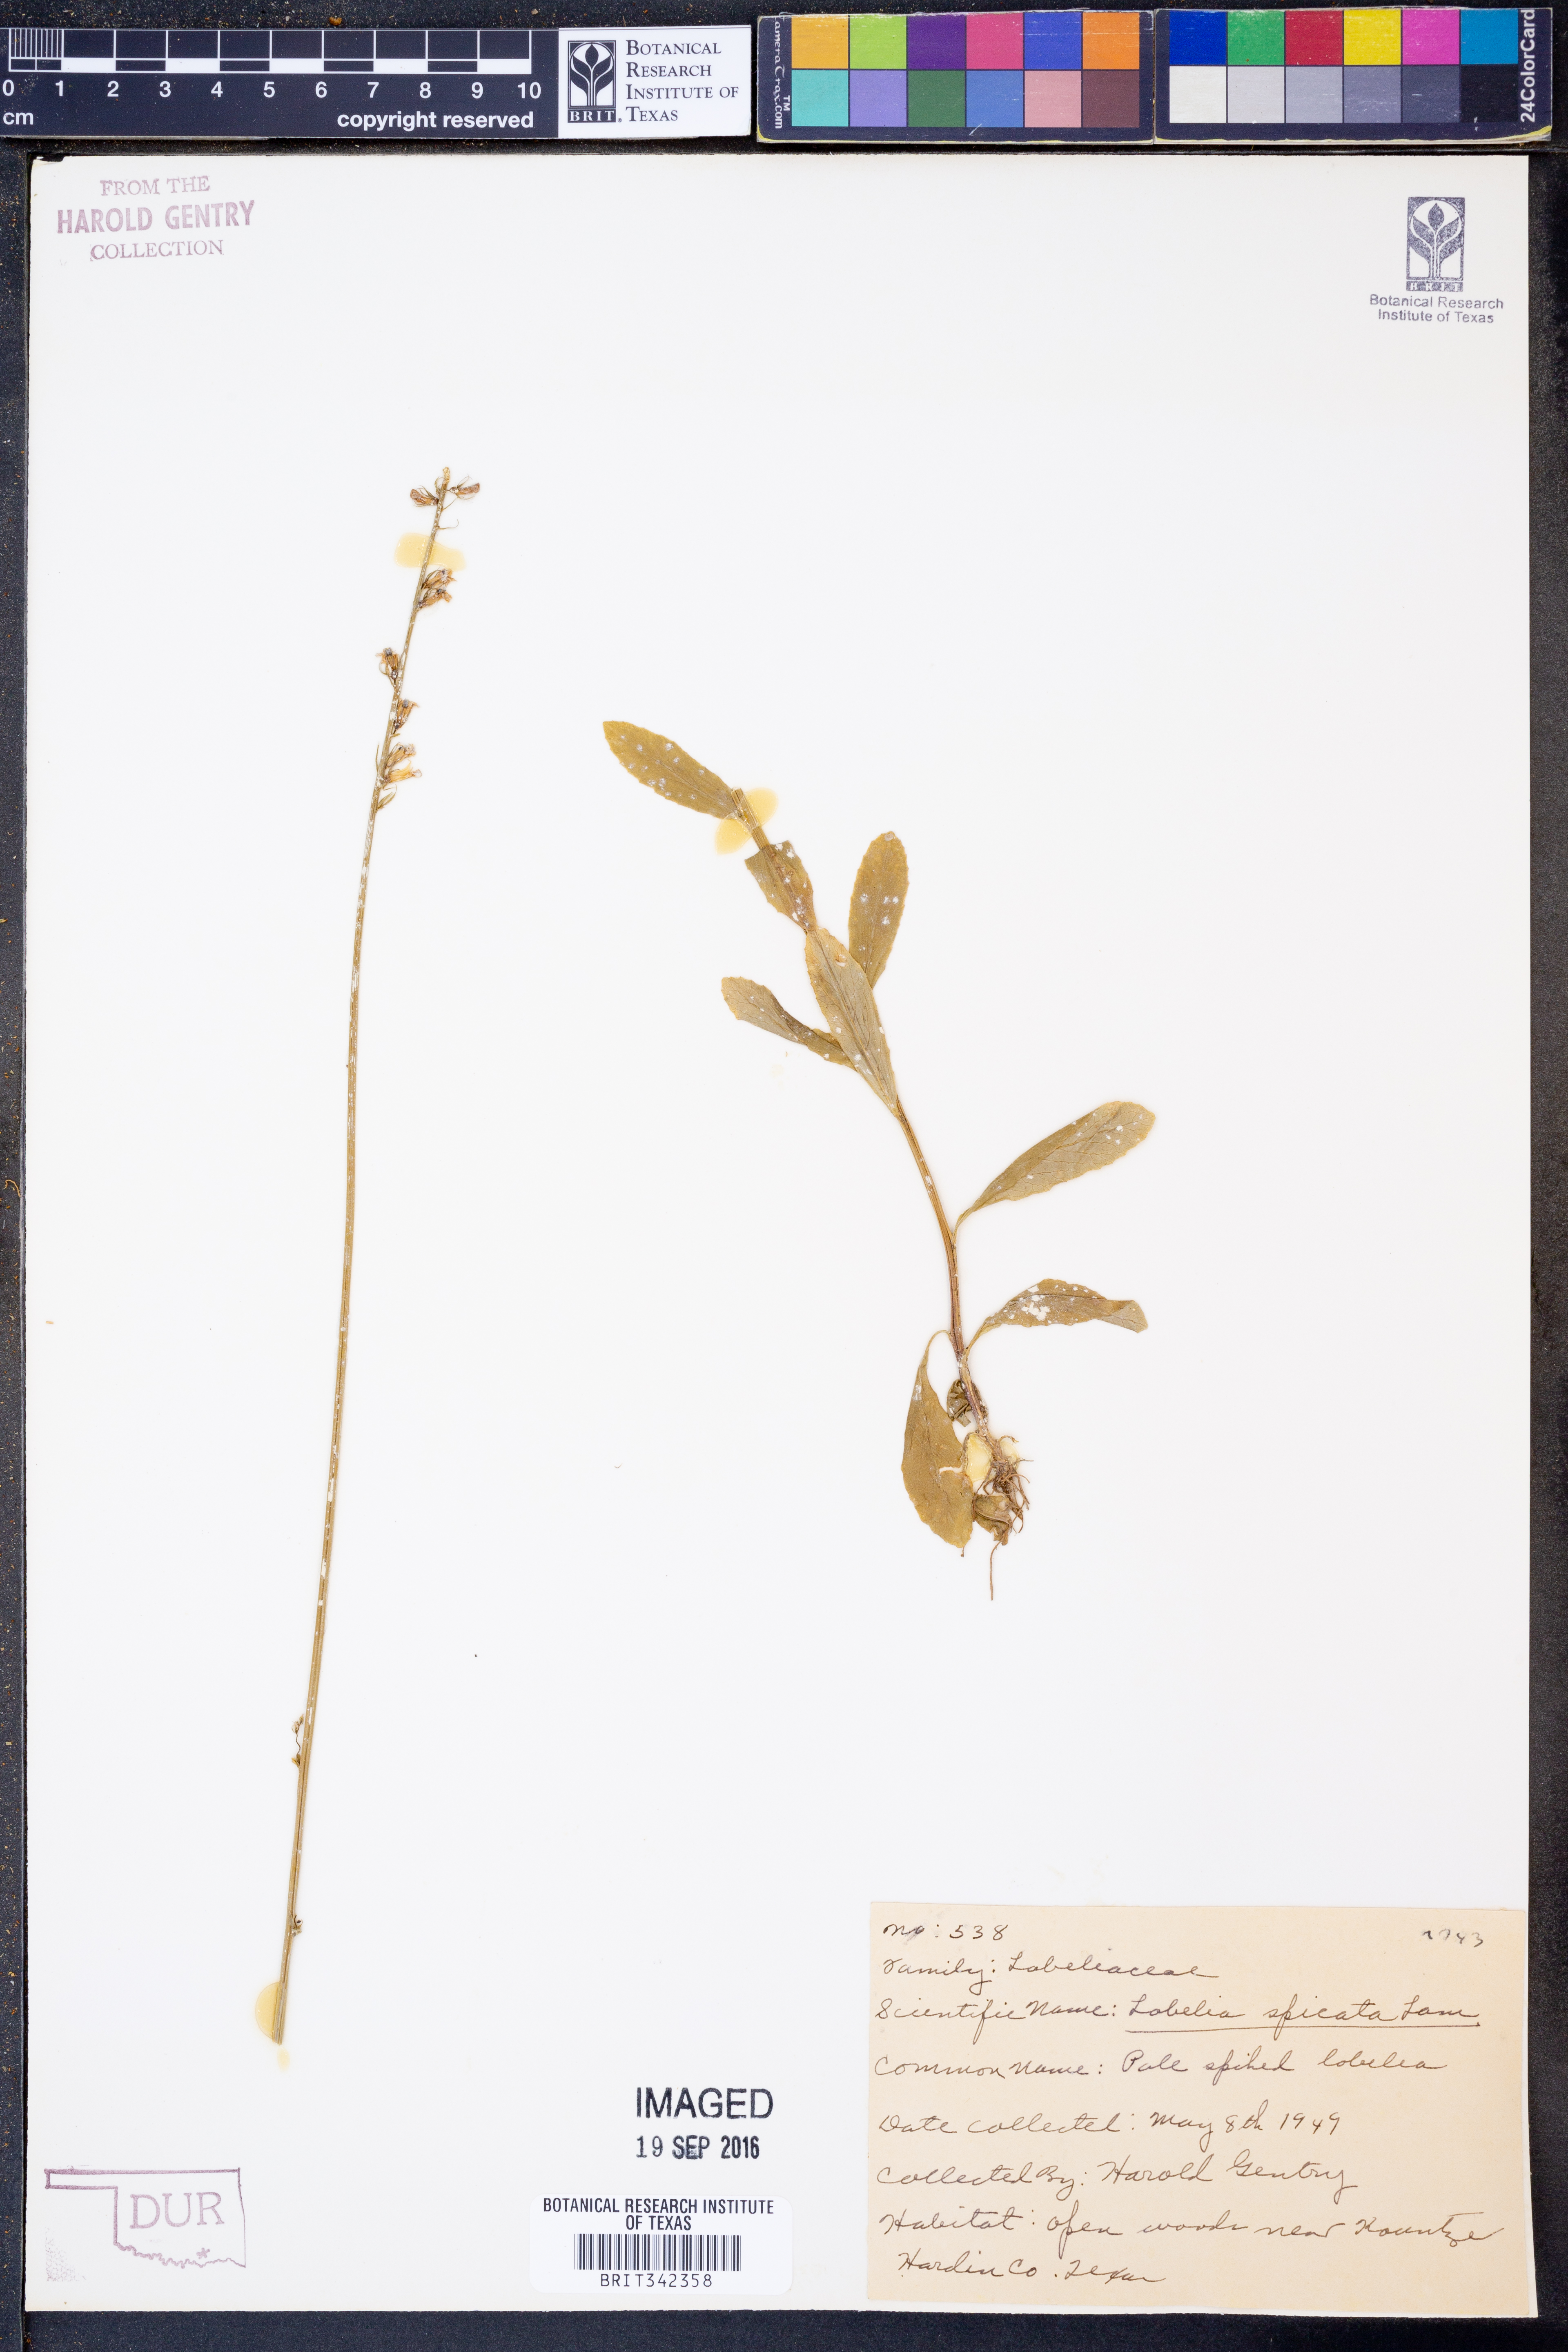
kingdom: Plantae
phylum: Tracheophyta
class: Magnoliopsida
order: Asterales
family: Campanulaceae
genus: Lobelia
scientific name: Lobelia spicata
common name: Pale-spike lobelia
